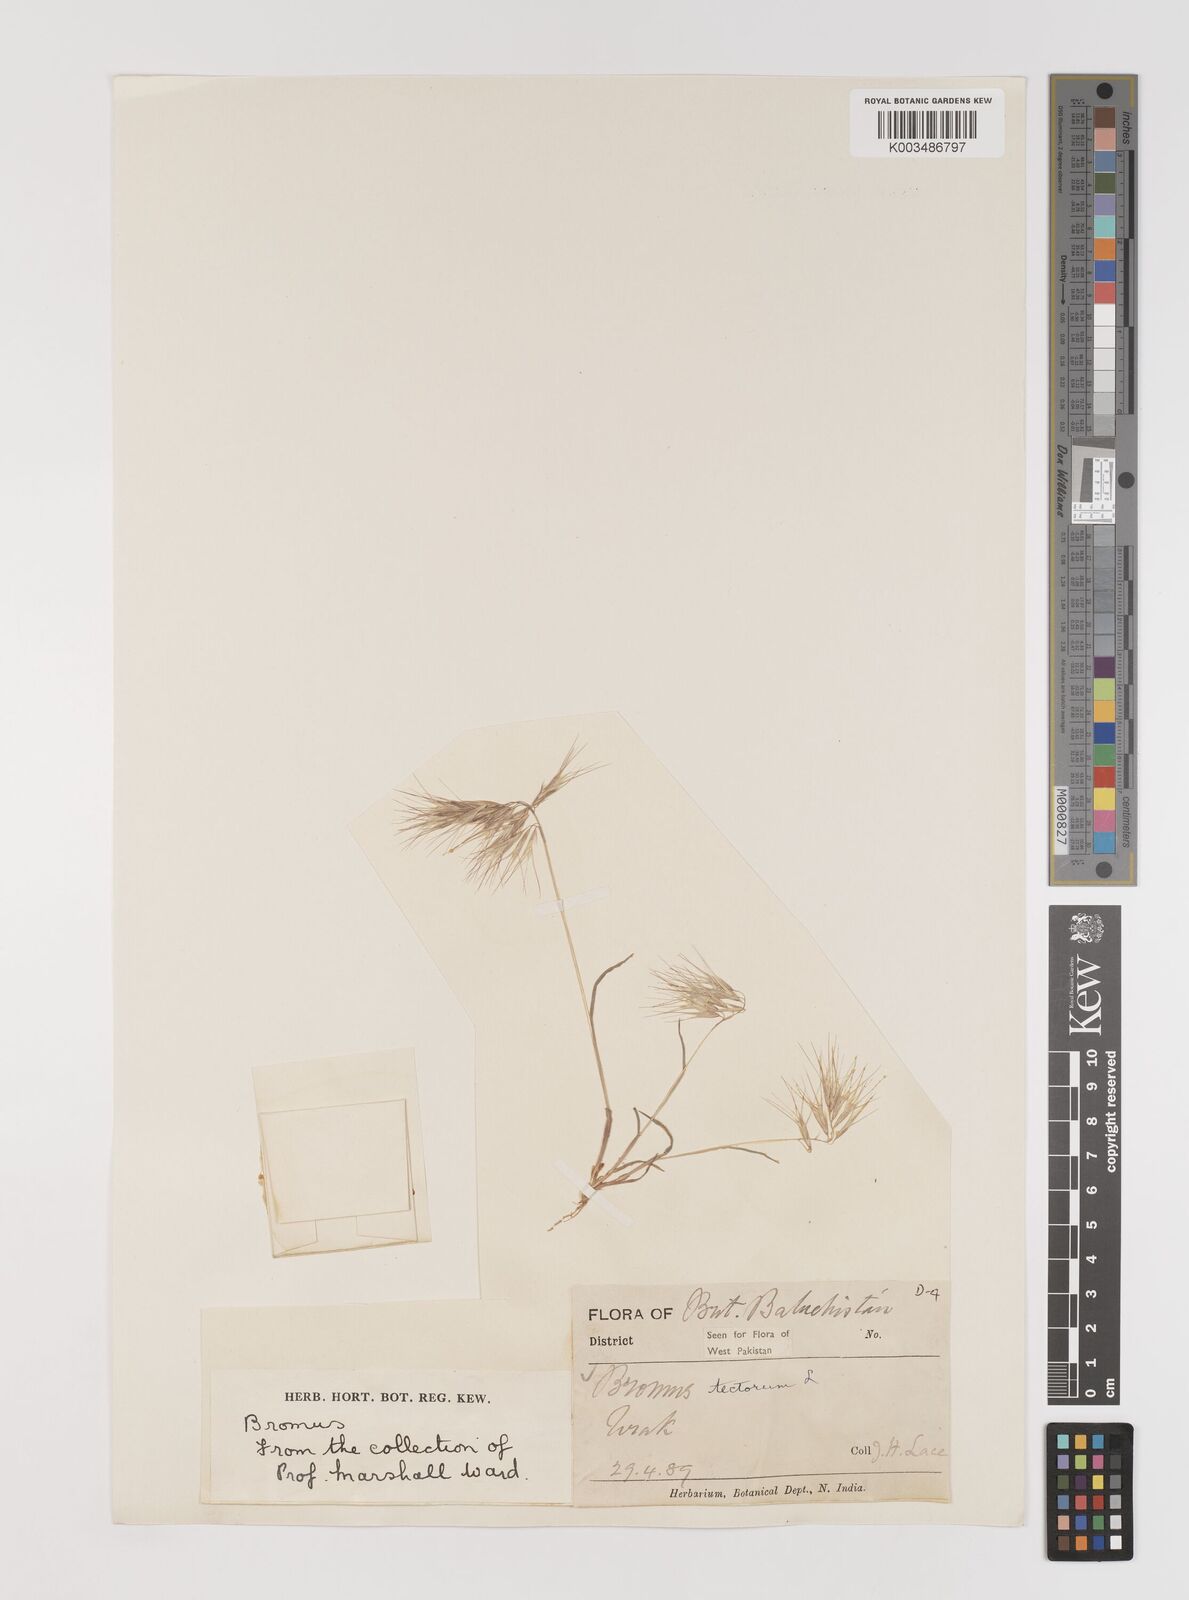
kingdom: Plantae
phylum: Tracheophyta
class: Liliopsida
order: Poales
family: Poaceae
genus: Bromus
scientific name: Bromus tectorum
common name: Cheatgrass
